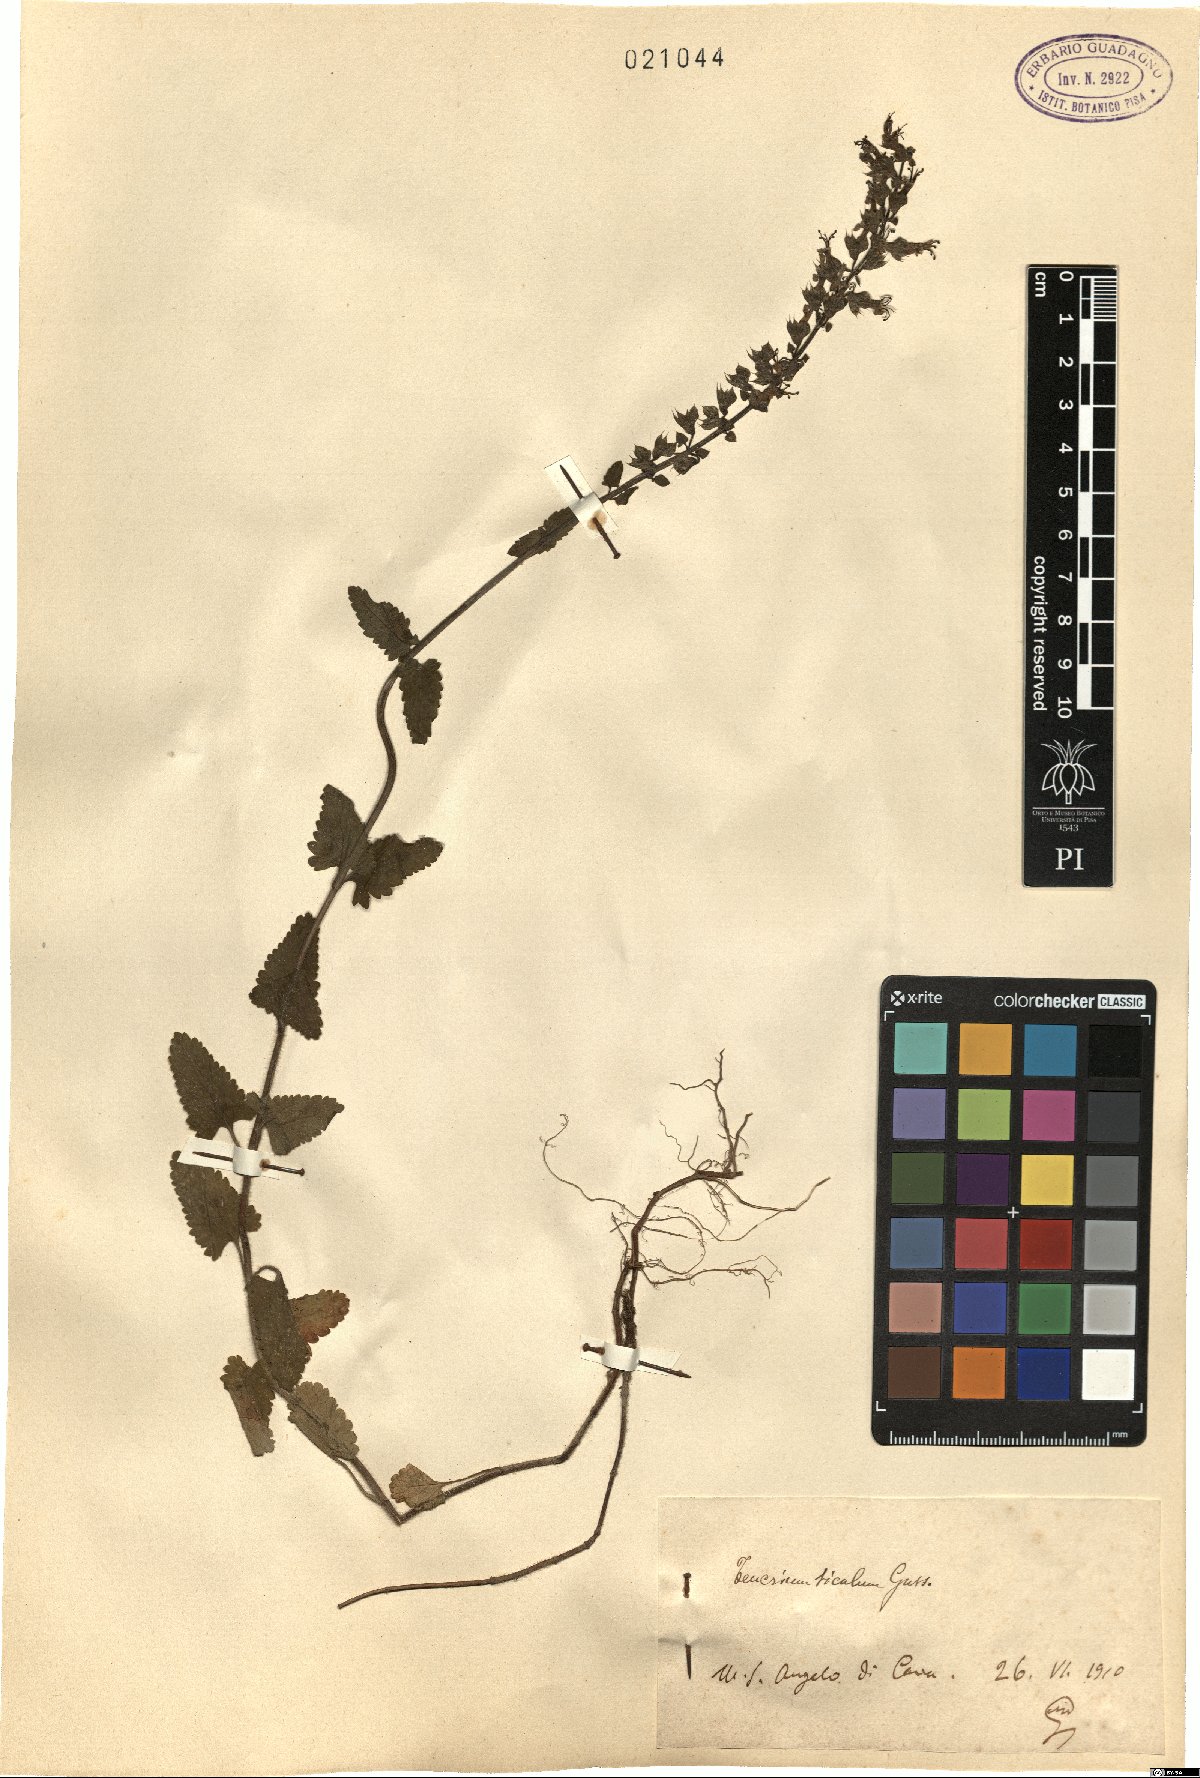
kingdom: Plantae
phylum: Tracheophyta
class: Magnoliopsida
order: Lamiales
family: Lamiaceae
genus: Teucrium
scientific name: Teucrium siculum
